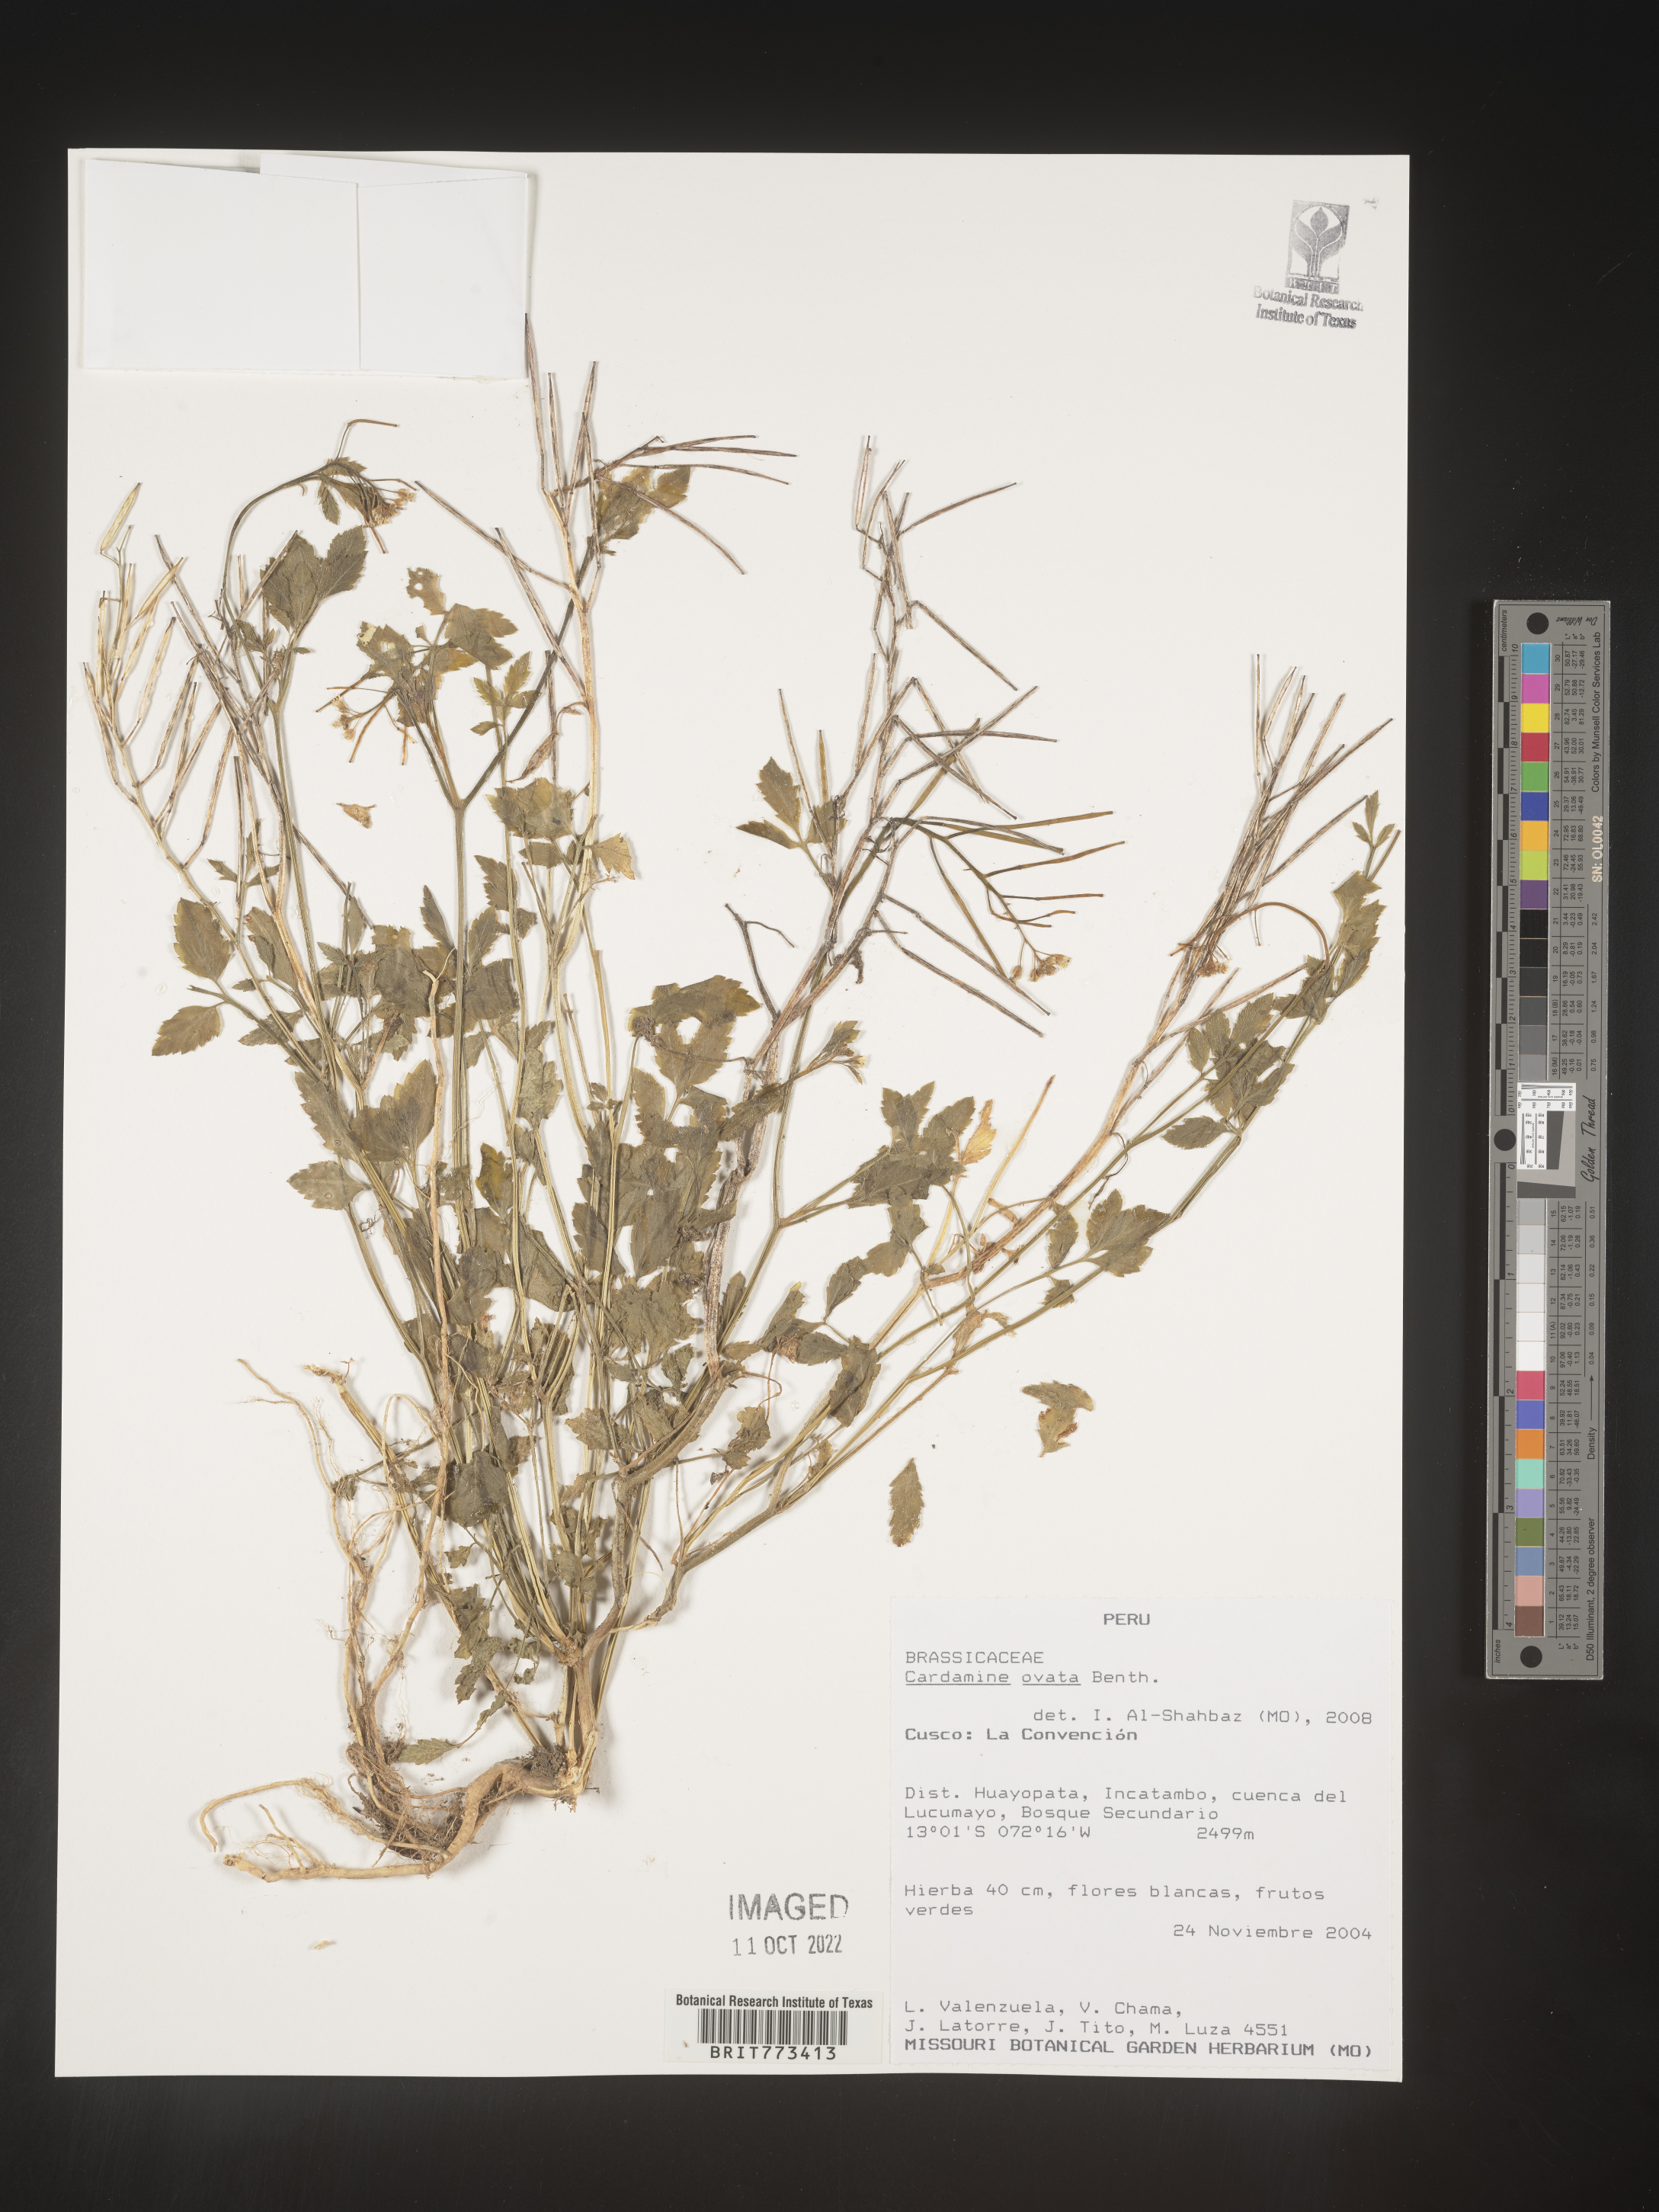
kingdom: Plantae
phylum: Tracheophyta
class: Magnoliopsida
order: Brassicales
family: Brassicaceae
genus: Cardamine
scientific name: Cardamine
